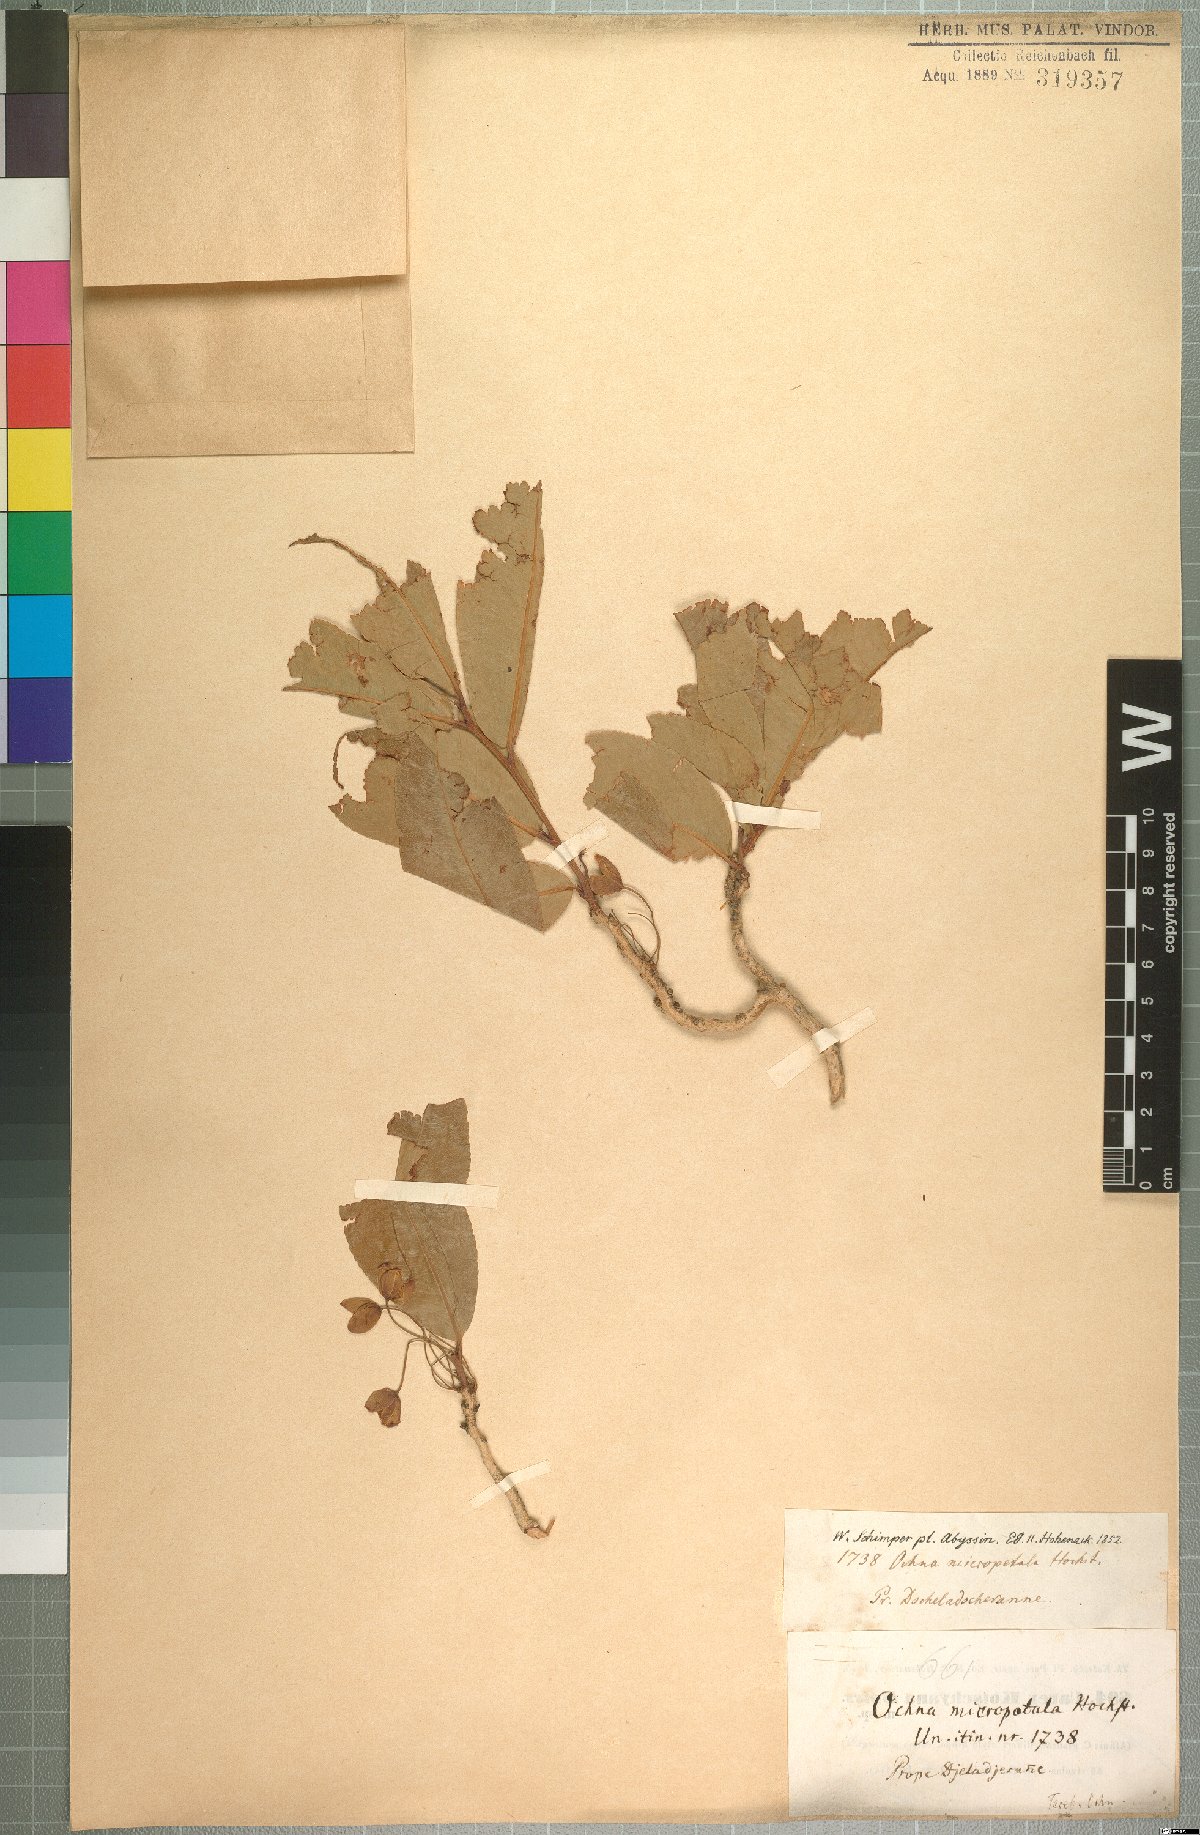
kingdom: Plantae
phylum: Tracheophyta
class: Magnoliopsida
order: Malpighiales
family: Ochnaceae
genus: Ochna
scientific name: Ochna leucophloeos
